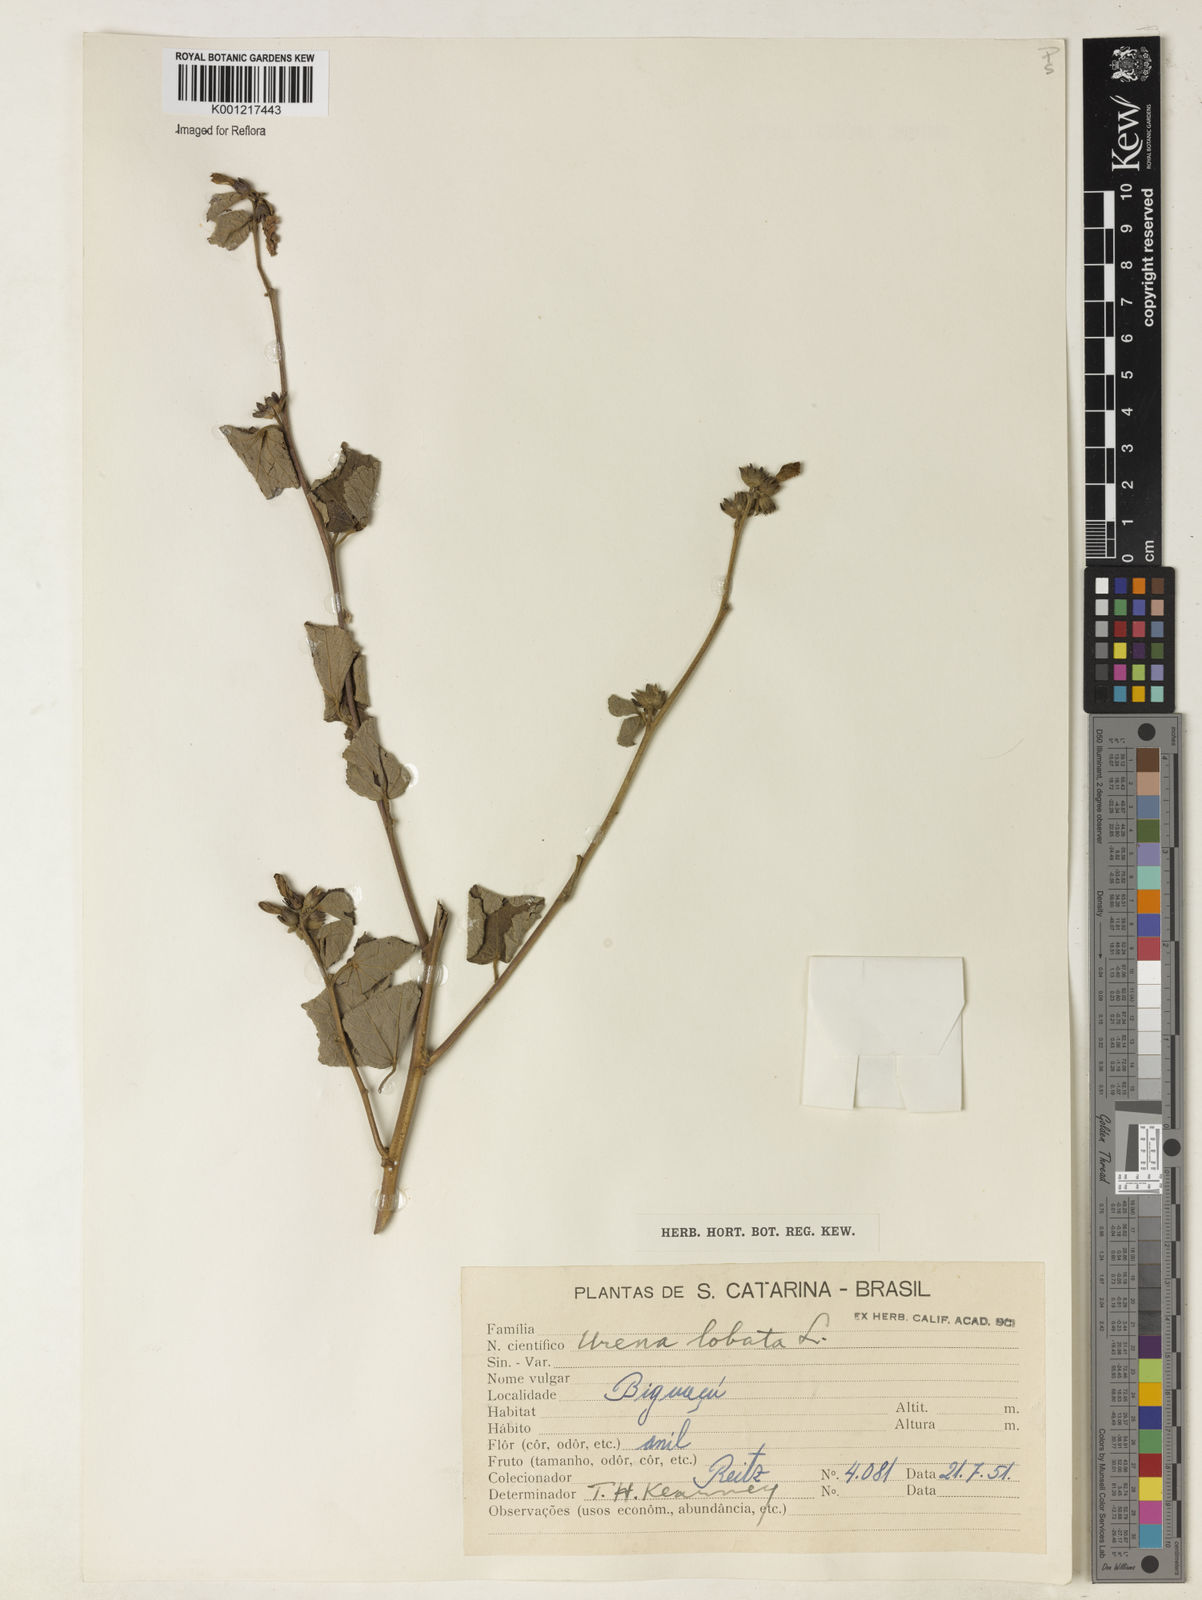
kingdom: Plantae
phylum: Tracheophyta
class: Magnoliopsida
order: Malvales
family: Malvaceae
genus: Urena
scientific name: Urena lobata
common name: Caesarweed
